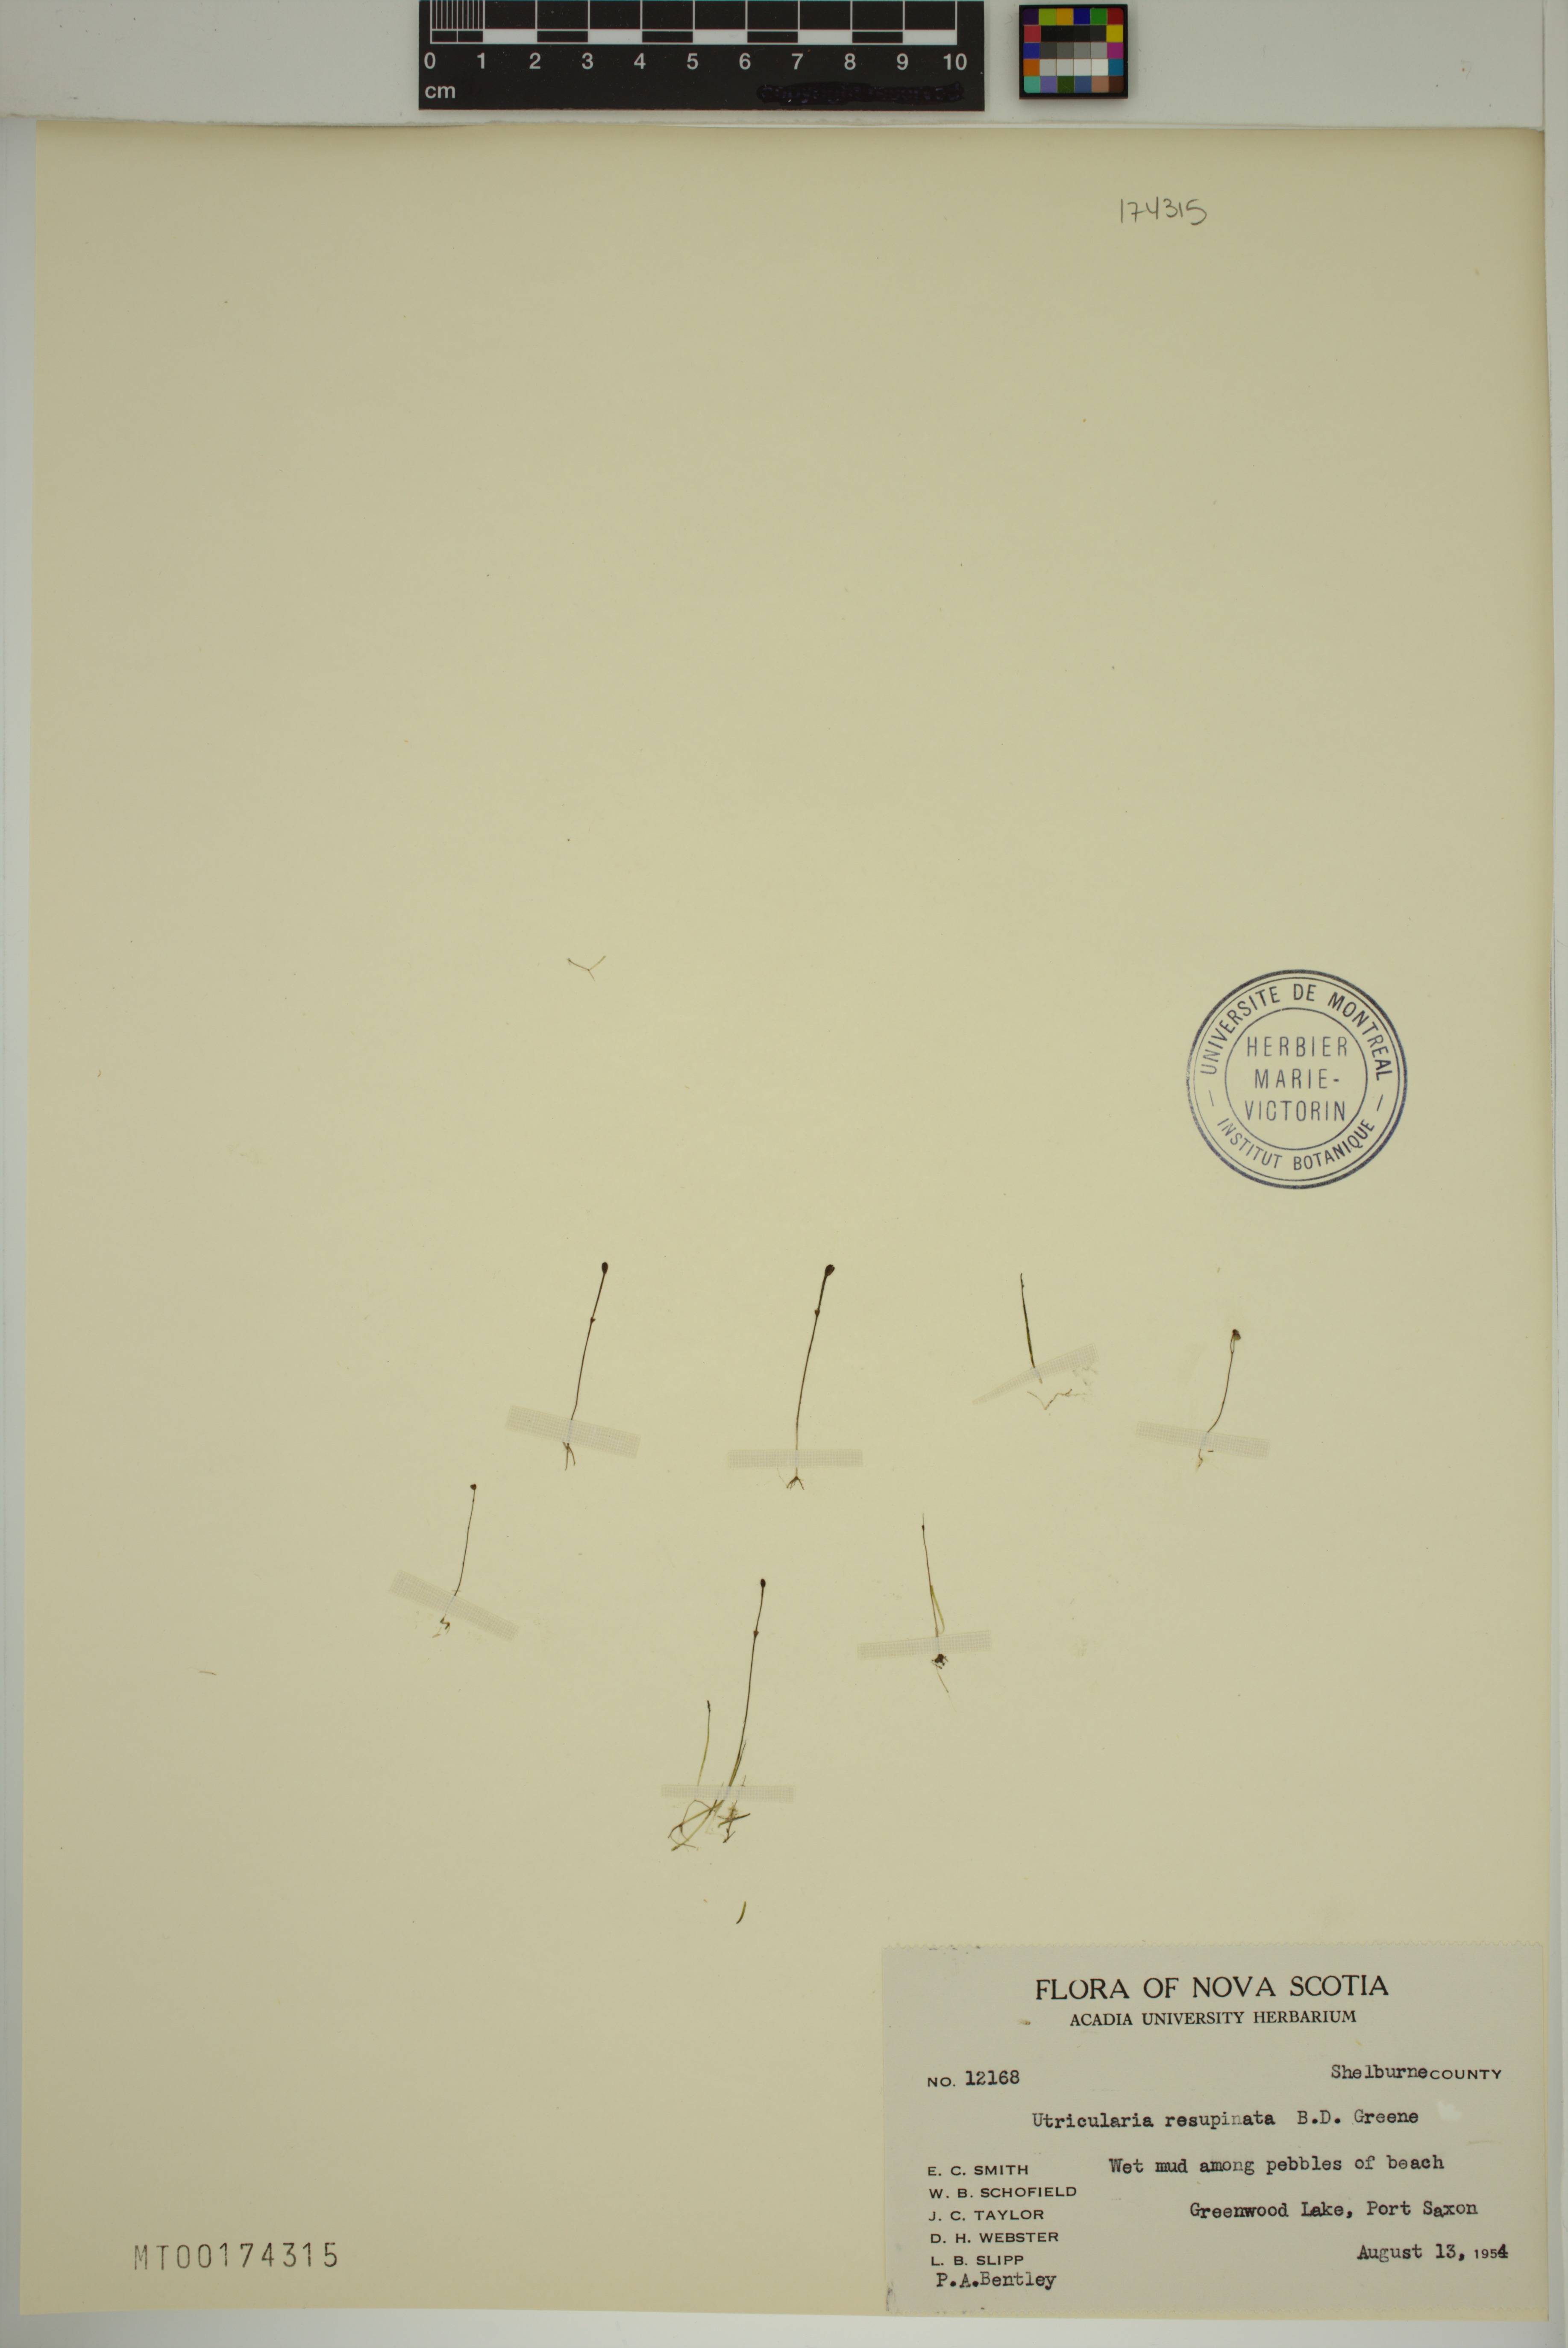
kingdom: Plantae
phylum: Tracheophyta
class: Magnoliopsida
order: Lamiales
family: Lentibulariaceae
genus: Utricularia
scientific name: Utricularia resupinata
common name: Northeastern bladderwort
